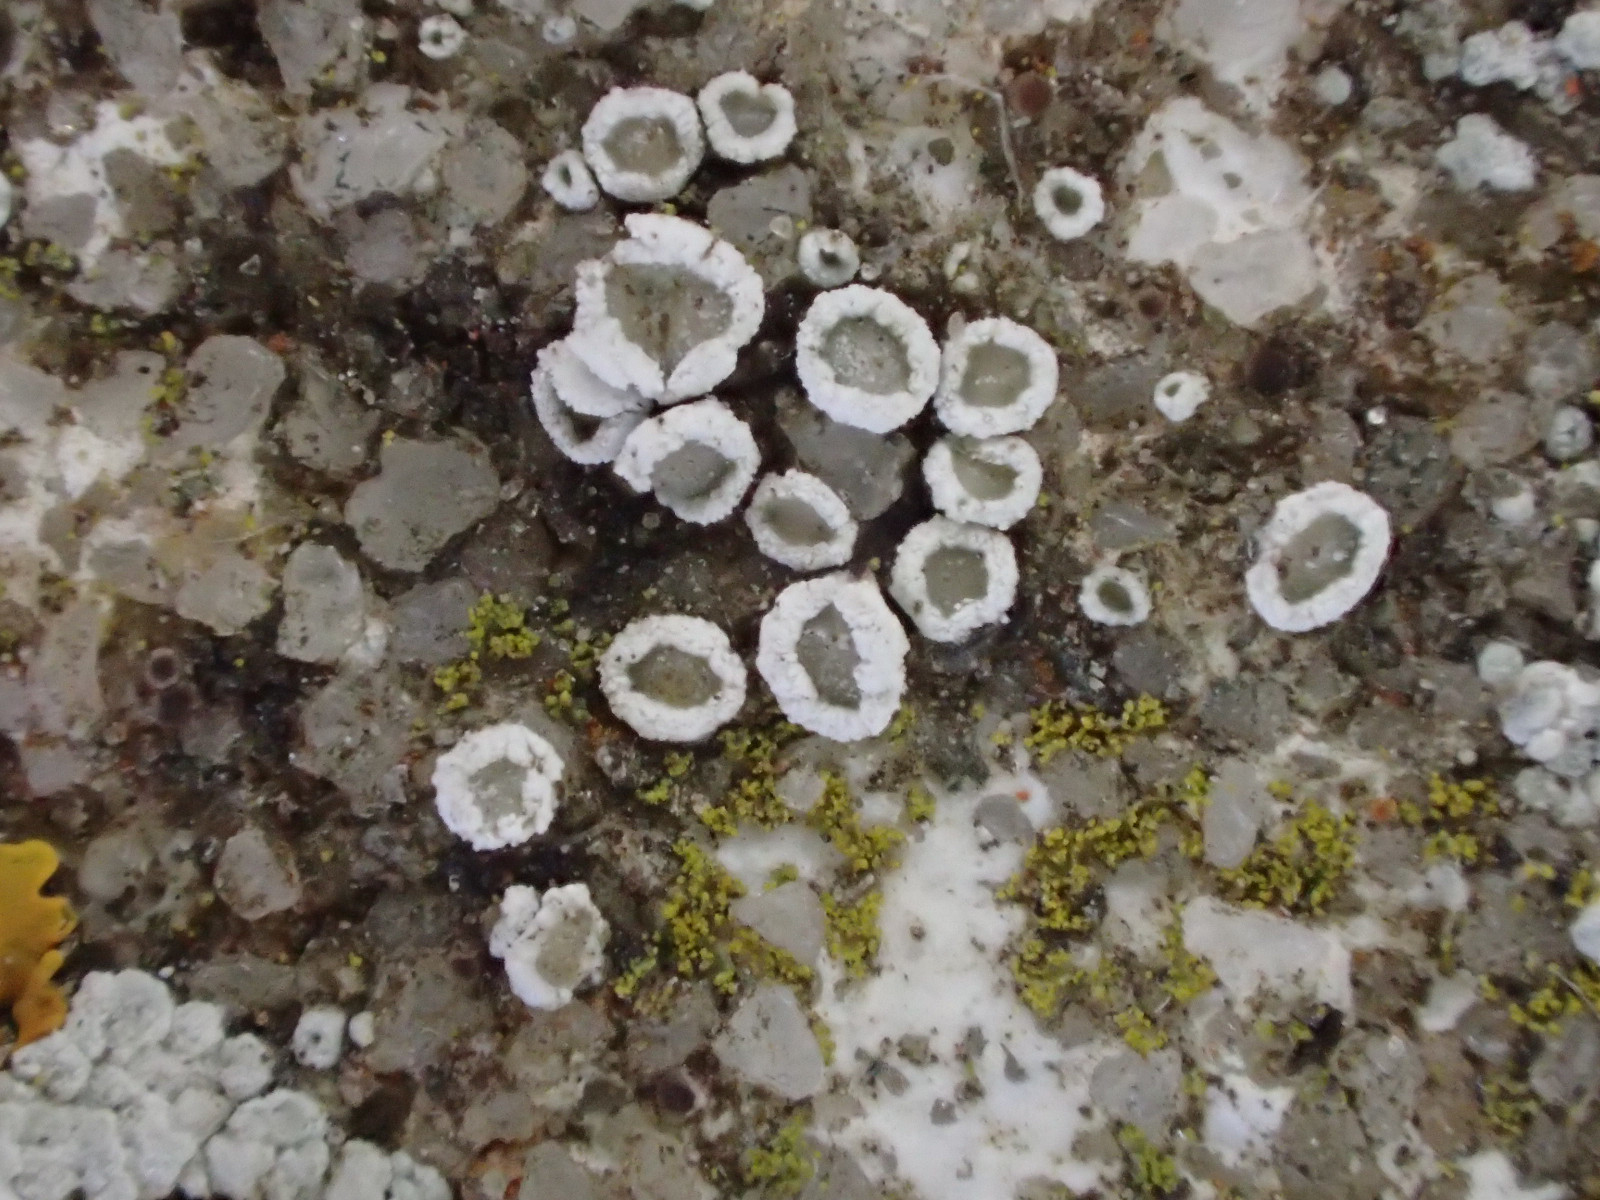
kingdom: Fungi
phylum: Ascomycota
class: Lecanoromycetes
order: Lecanorales
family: Lecanoraceae
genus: Polyozosia
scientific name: Polyozosia dispersa
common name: spredt kantskivelav
